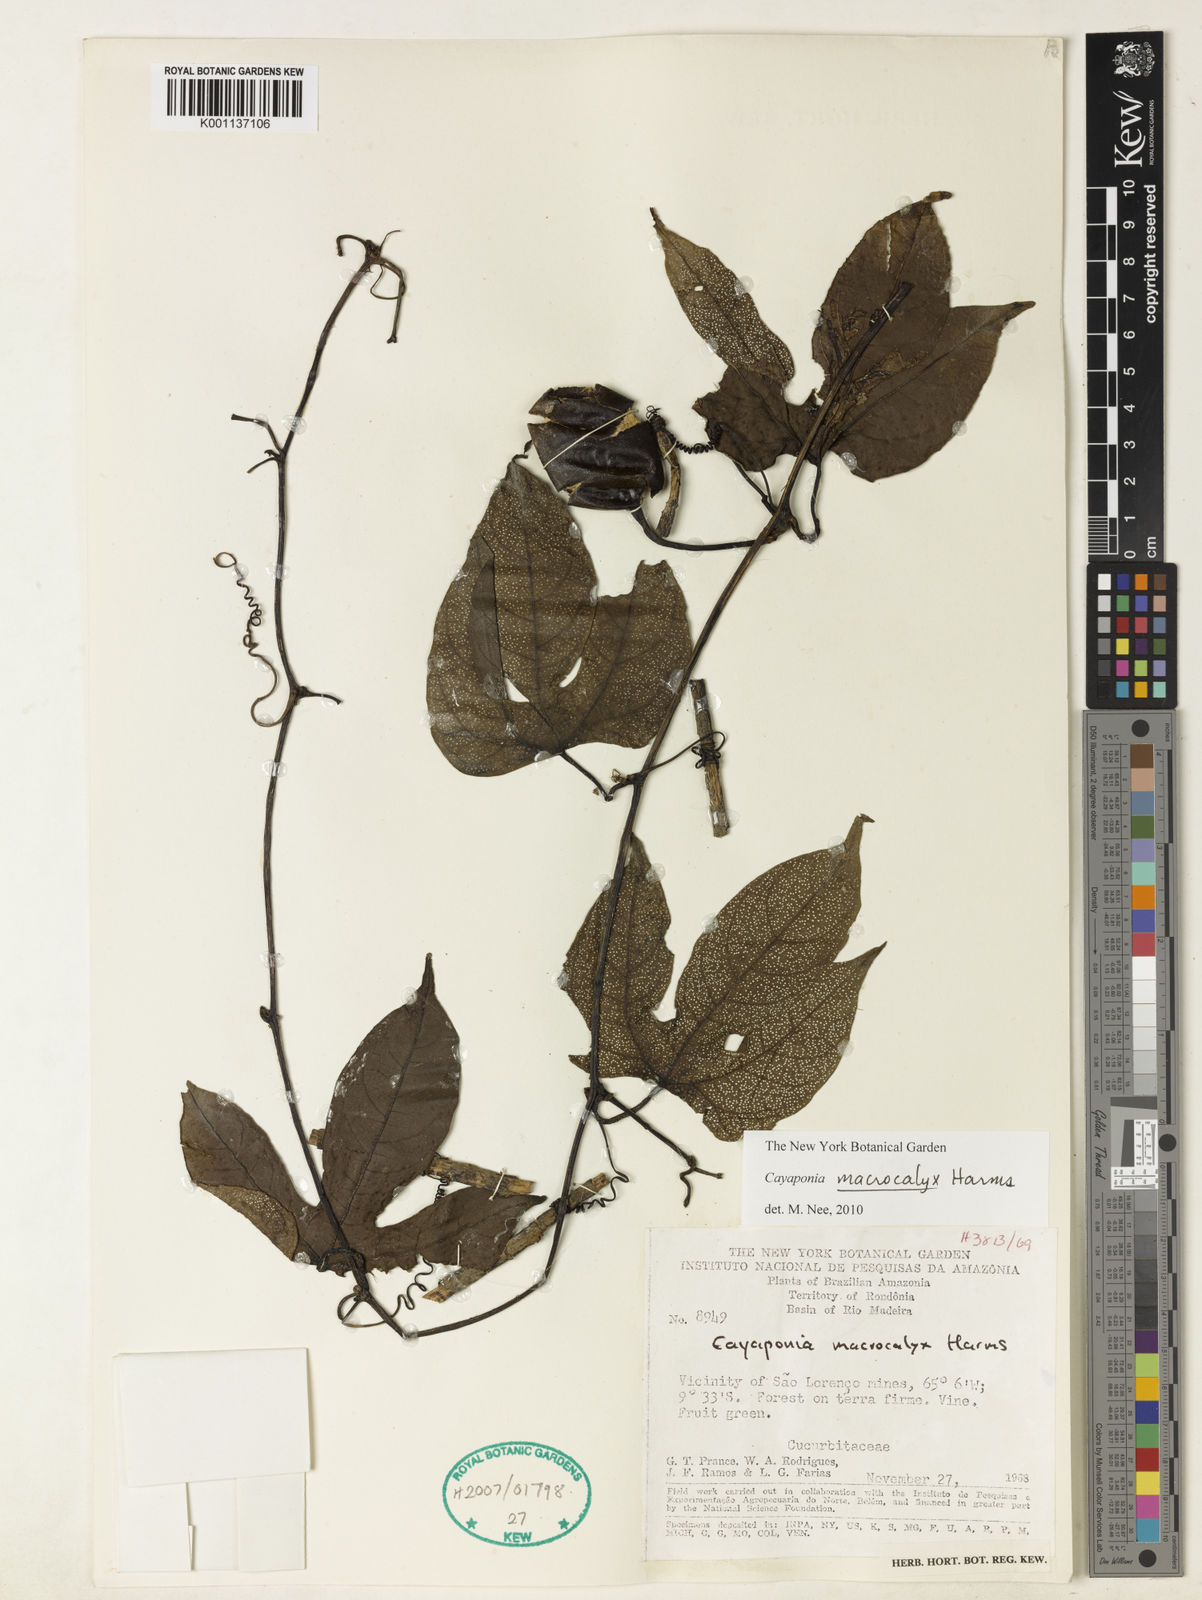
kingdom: Plantae
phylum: Tracheophyta
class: Magnoliopsida
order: Cucurbitales
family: Cucurbitaceae
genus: Cayaponia
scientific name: Cayaponia macrocalyx
